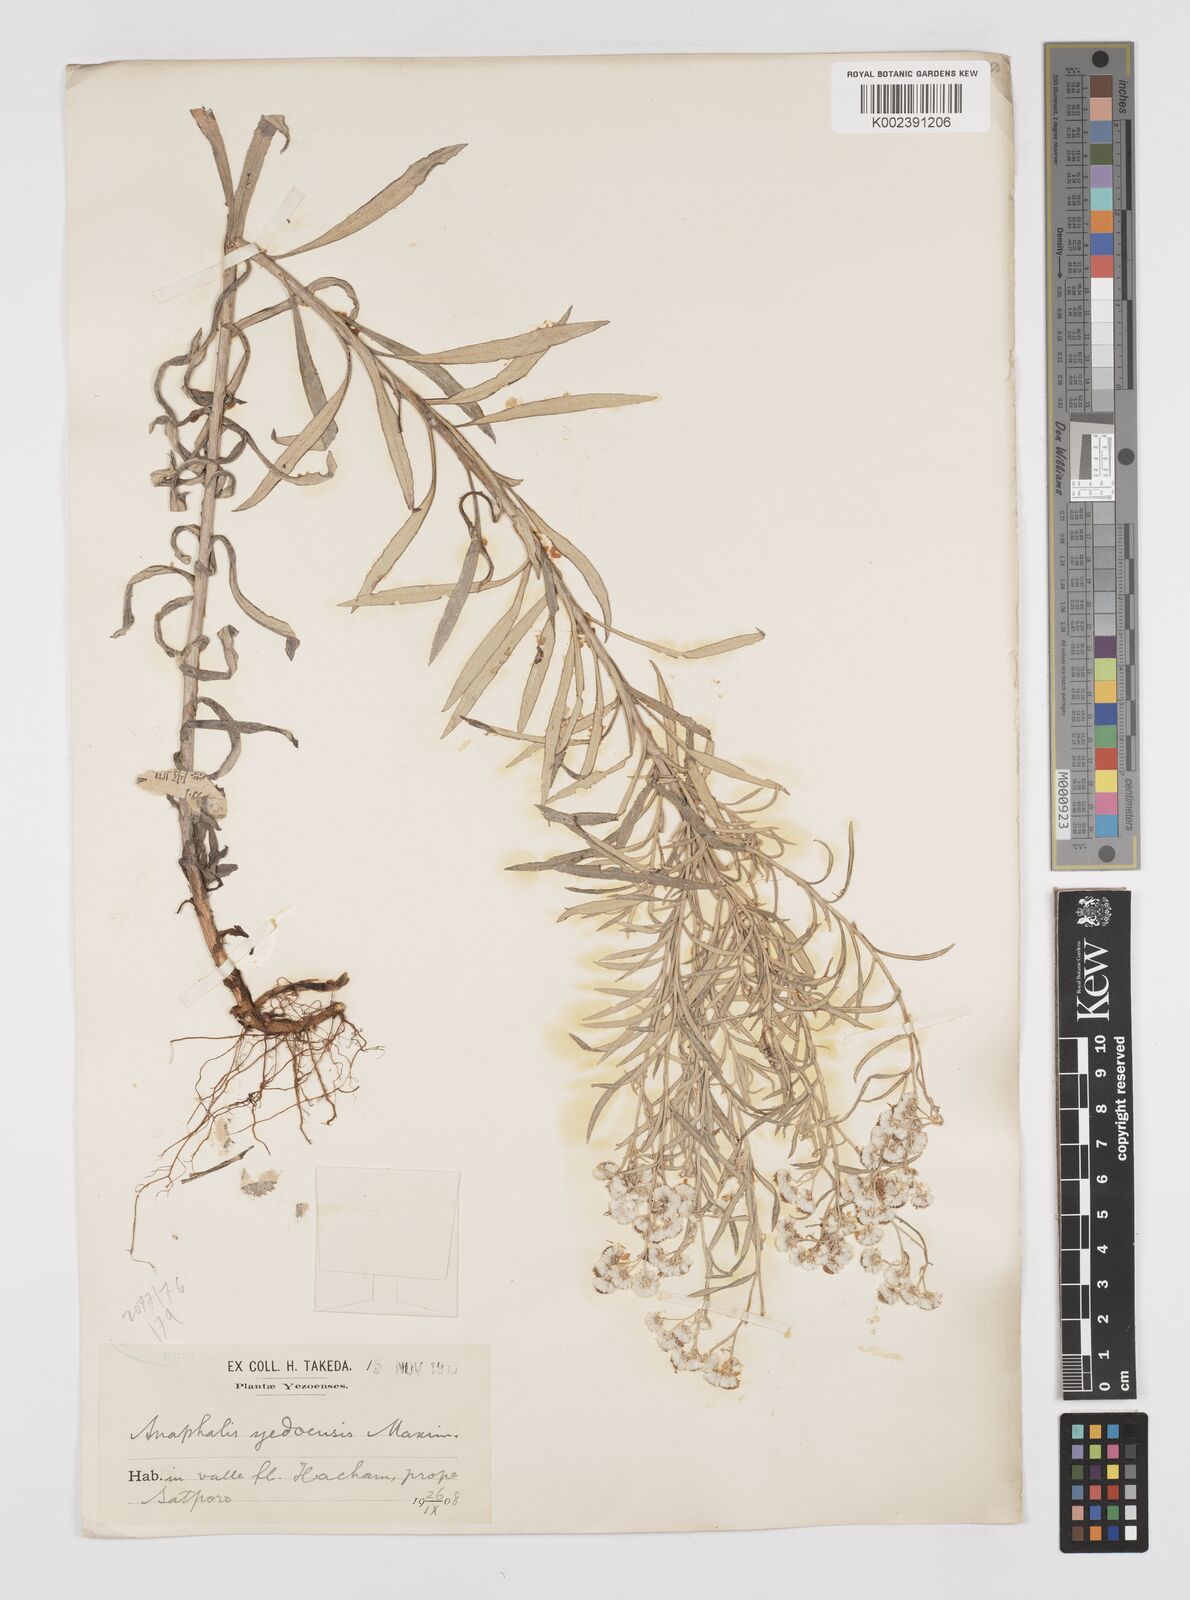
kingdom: Plantae
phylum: Tracheophyta
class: Magnoliopsida
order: Asterales
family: Asteraceae
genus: Anaphalis
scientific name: Anaphalis margaritacea
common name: Pearly everlasting
